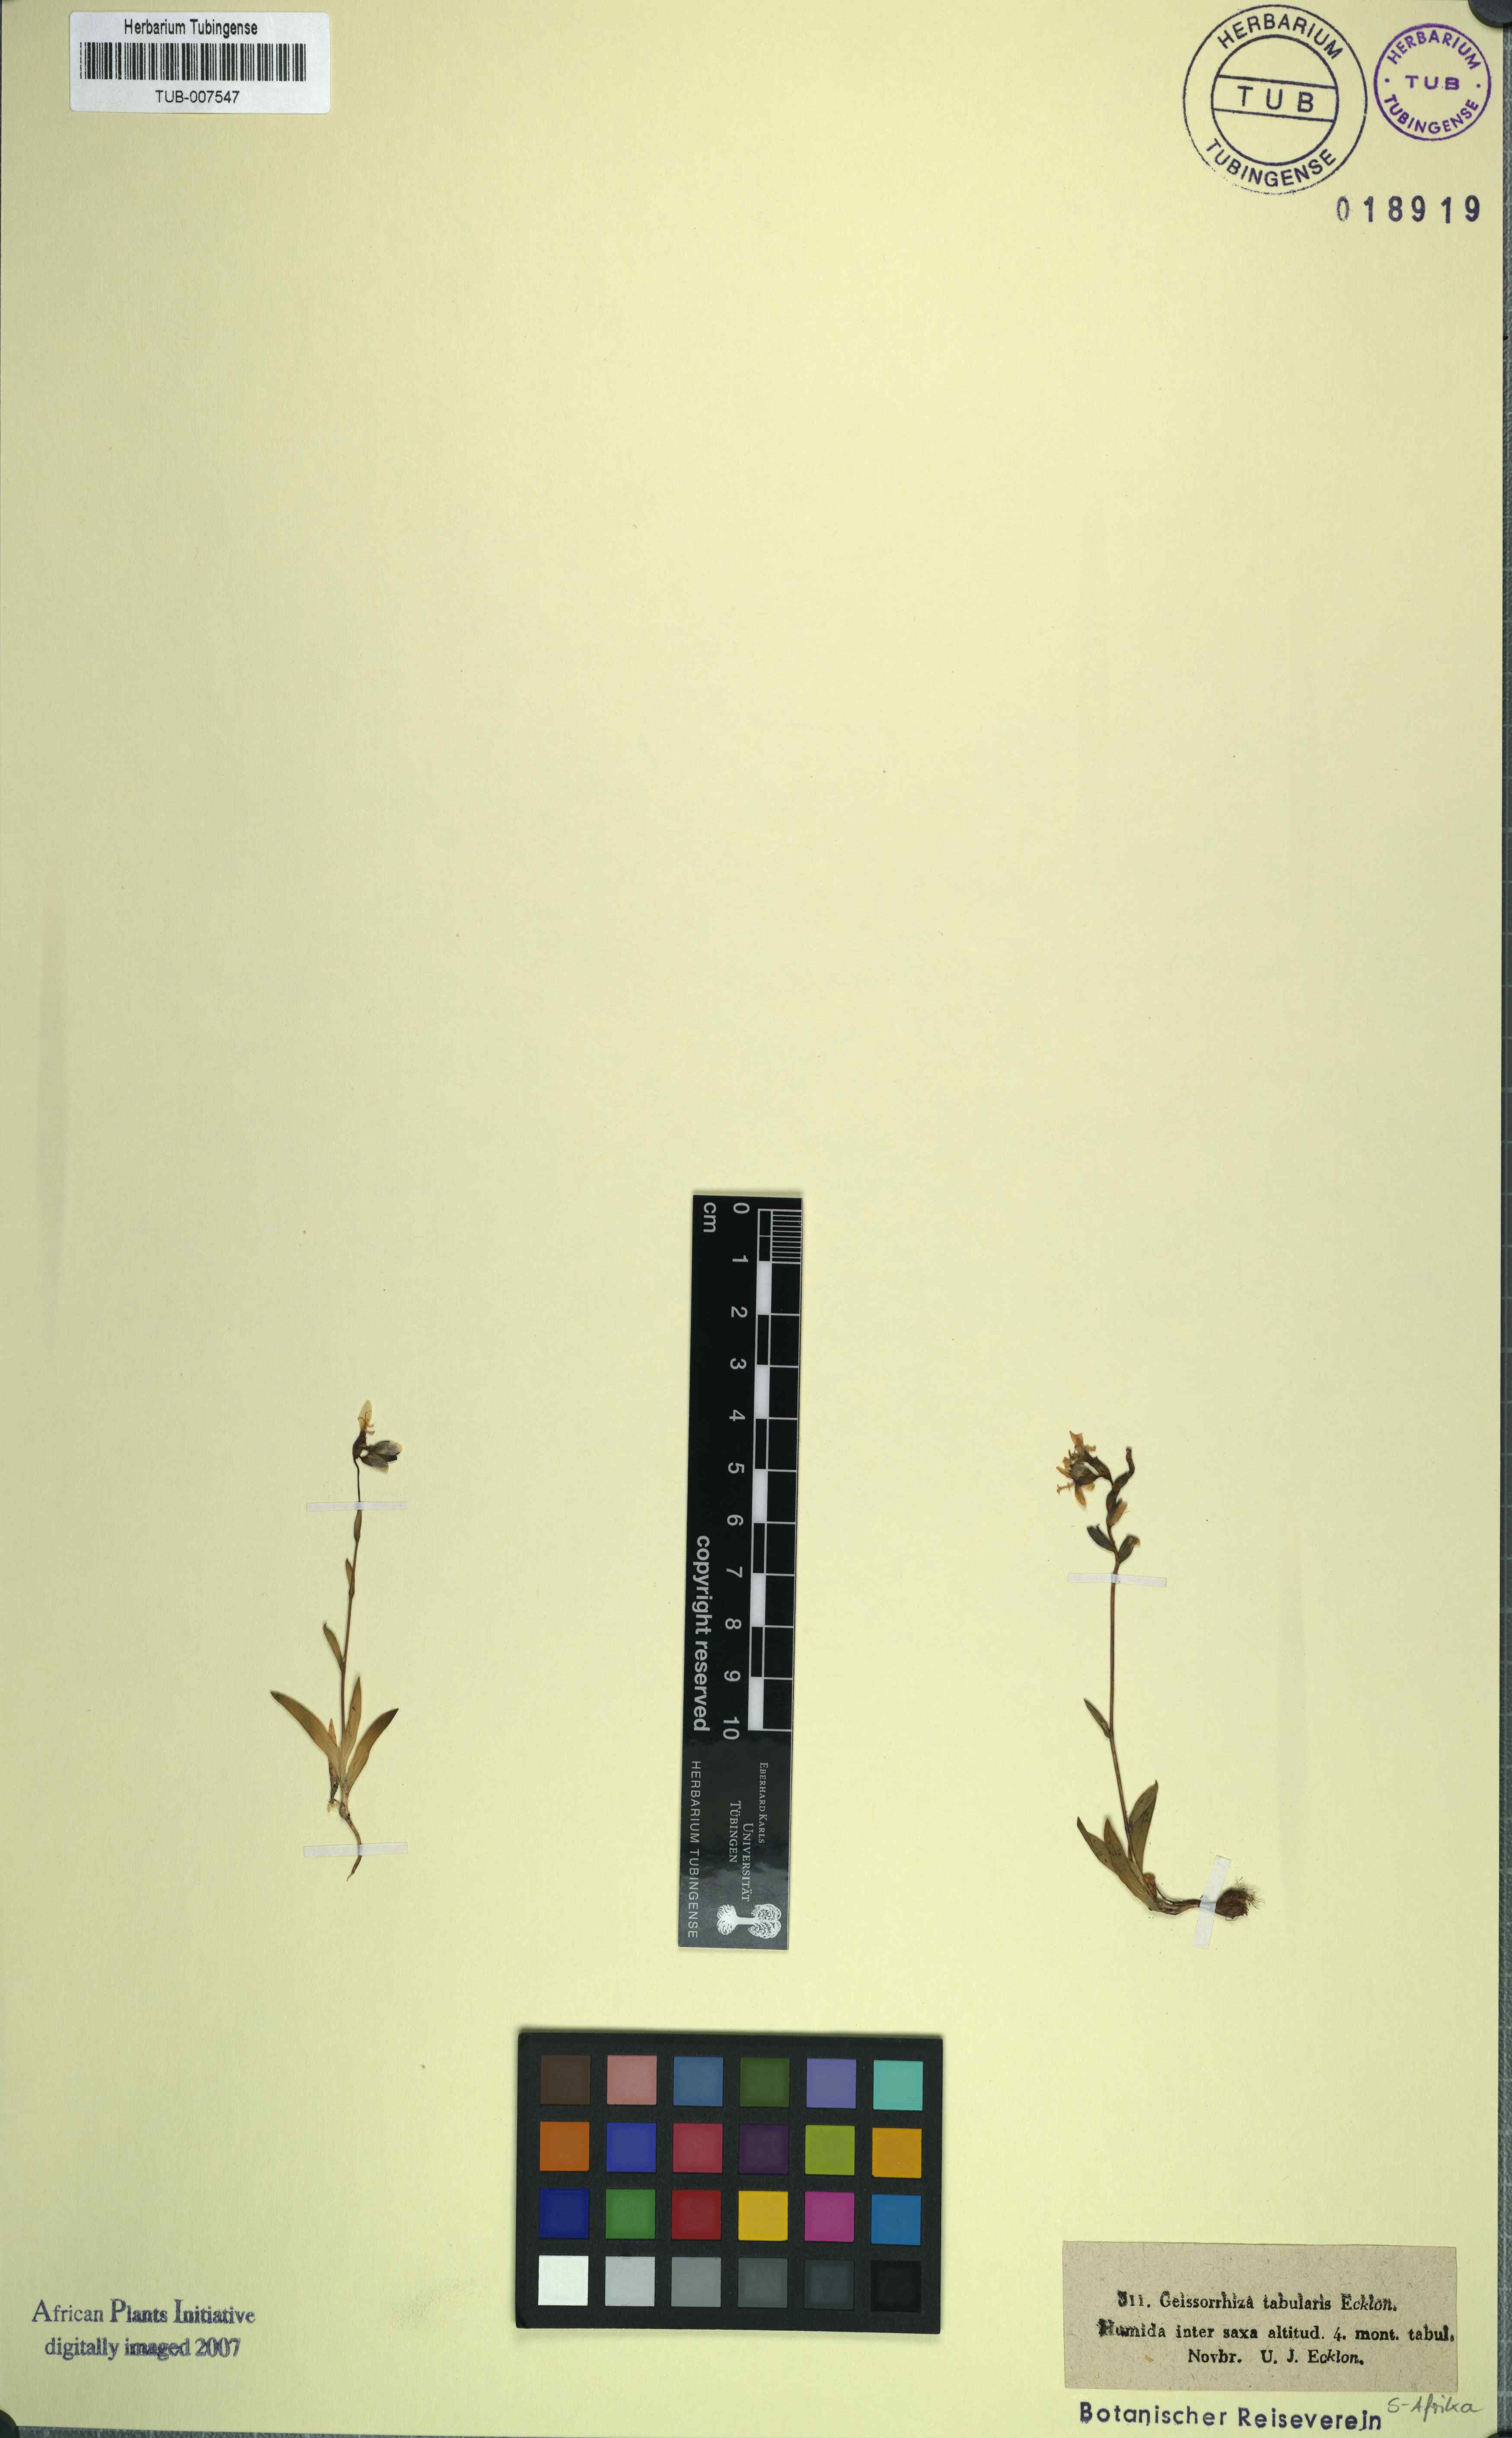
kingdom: Plantae
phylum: Tracheophyta
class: Liliopsida
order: Asparagales
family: Iridaceae
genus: Geissorhiza
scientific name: Geissorhiza tabularis
